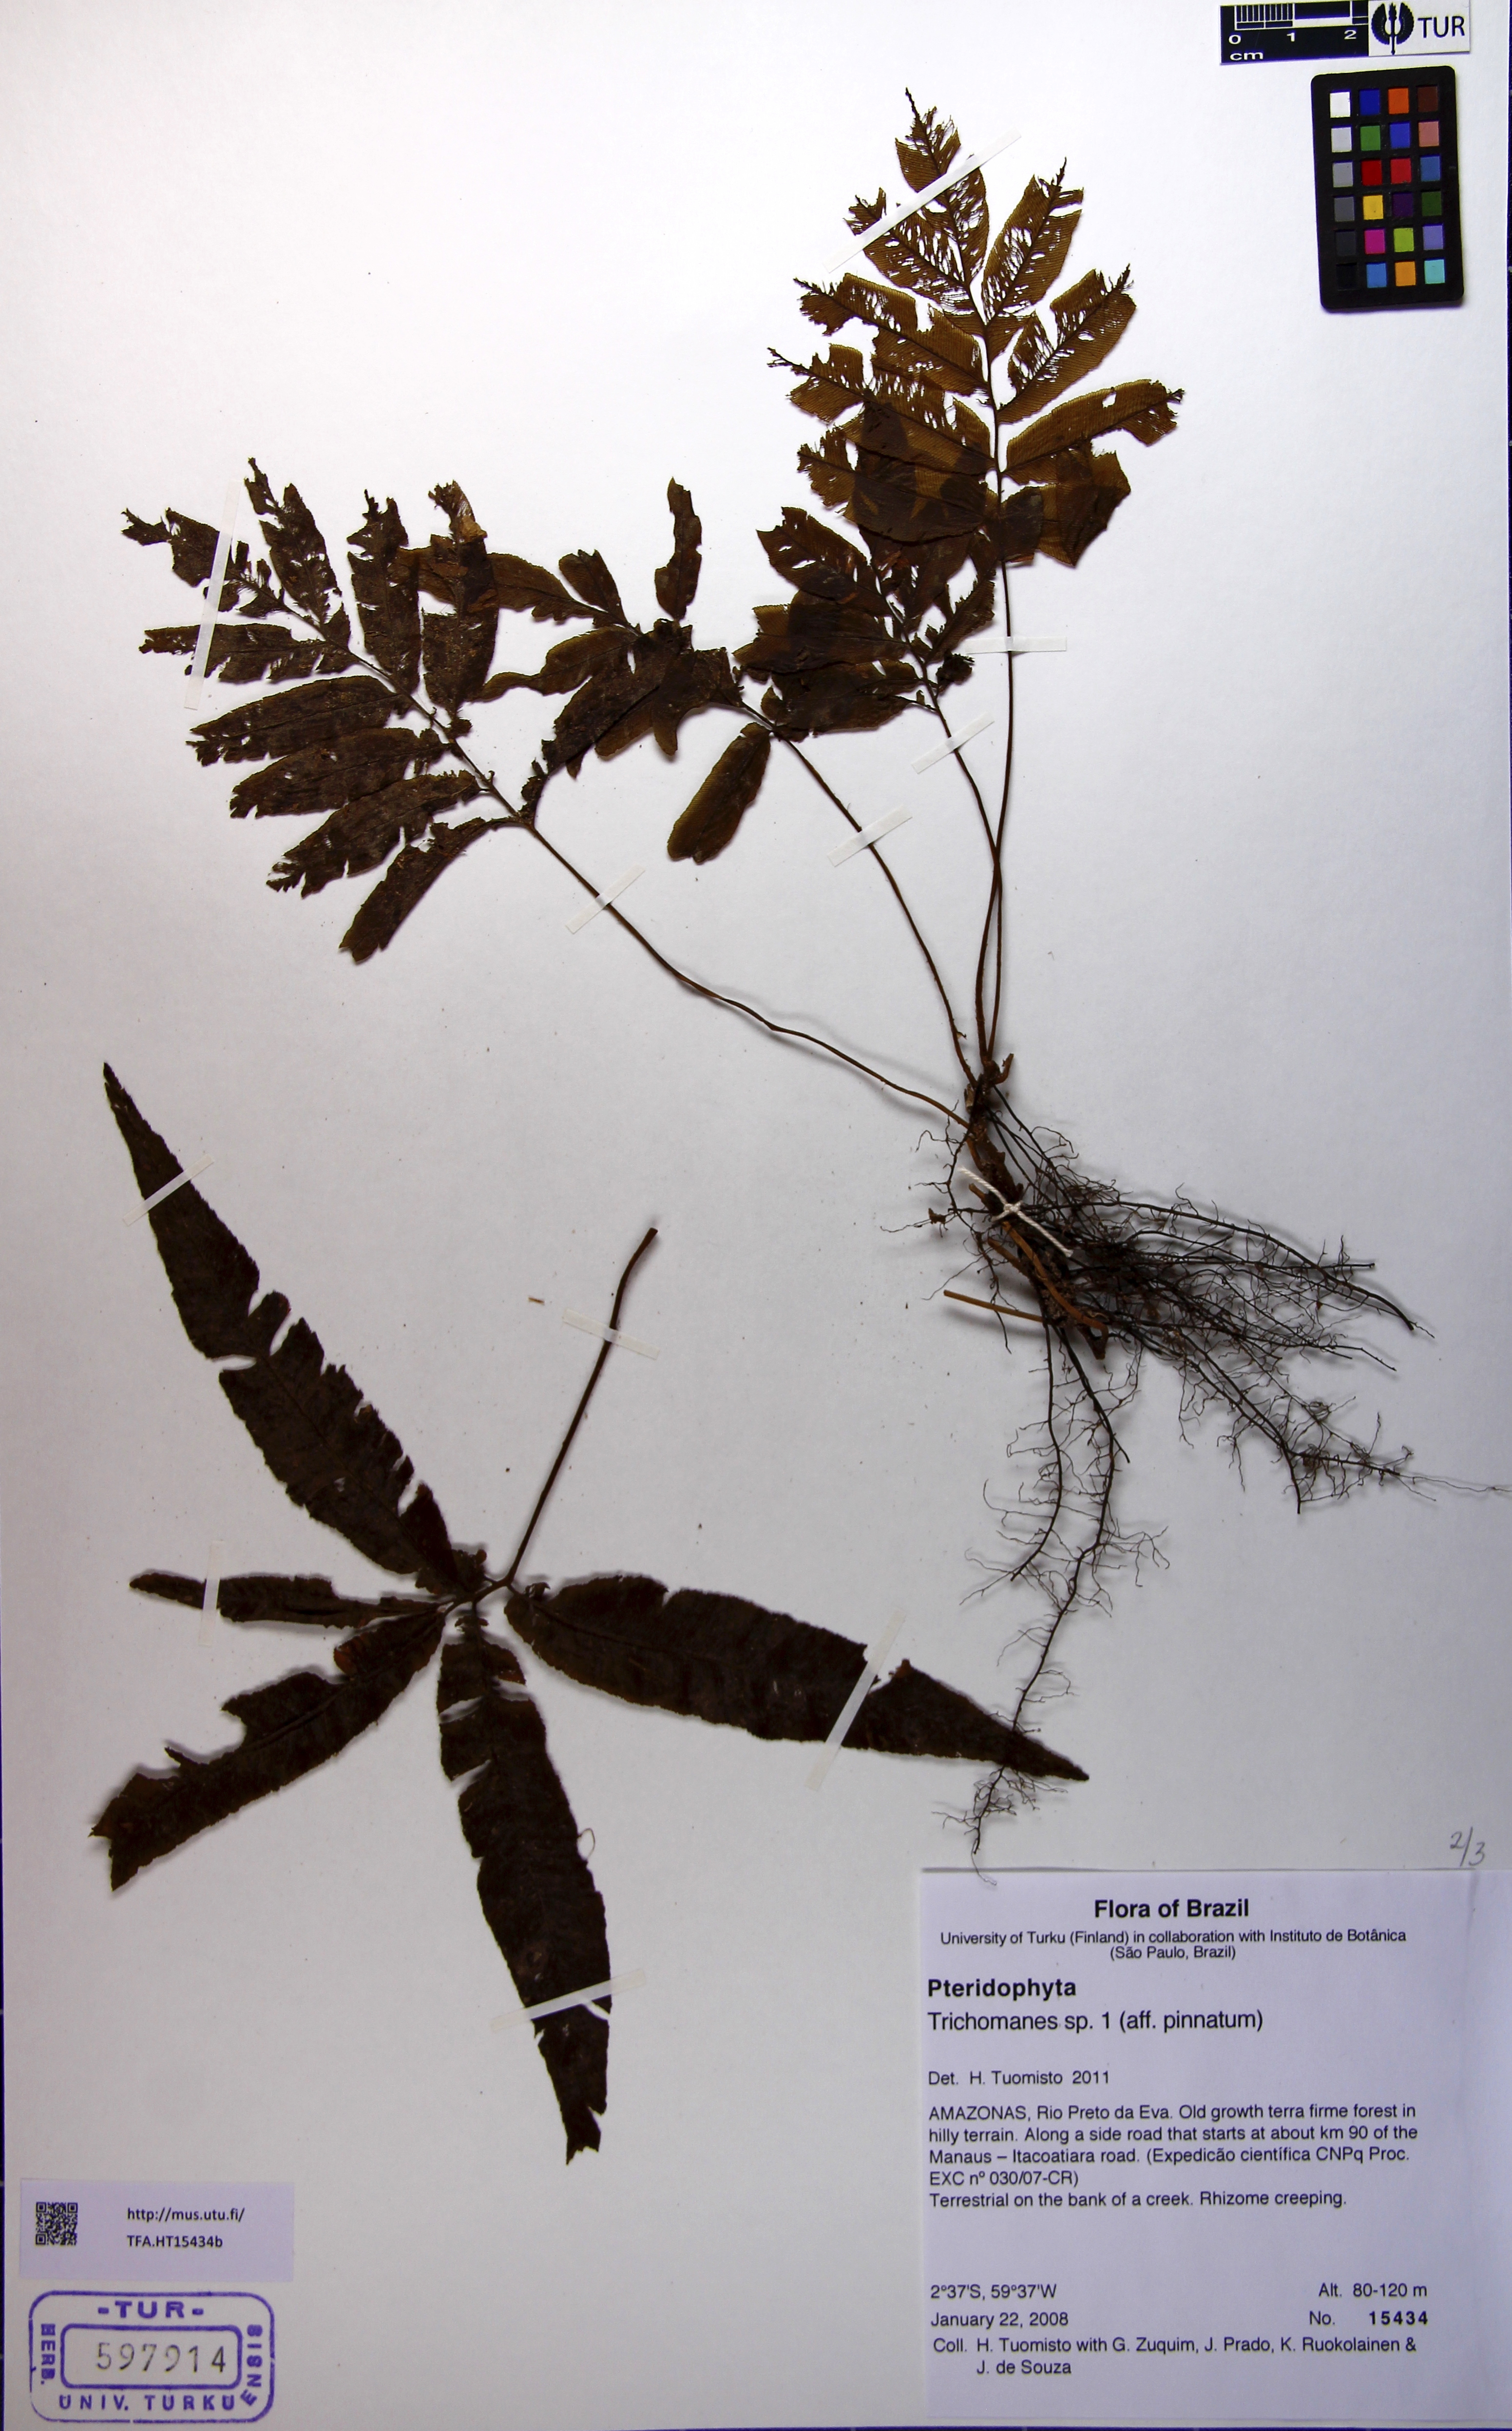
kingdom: Plantae
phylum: Tracheophyta
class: Polypodiopsida
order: Hymenophyllales
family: Hymenophyllaceae
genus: Trichomanes
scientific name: Trichomanes
